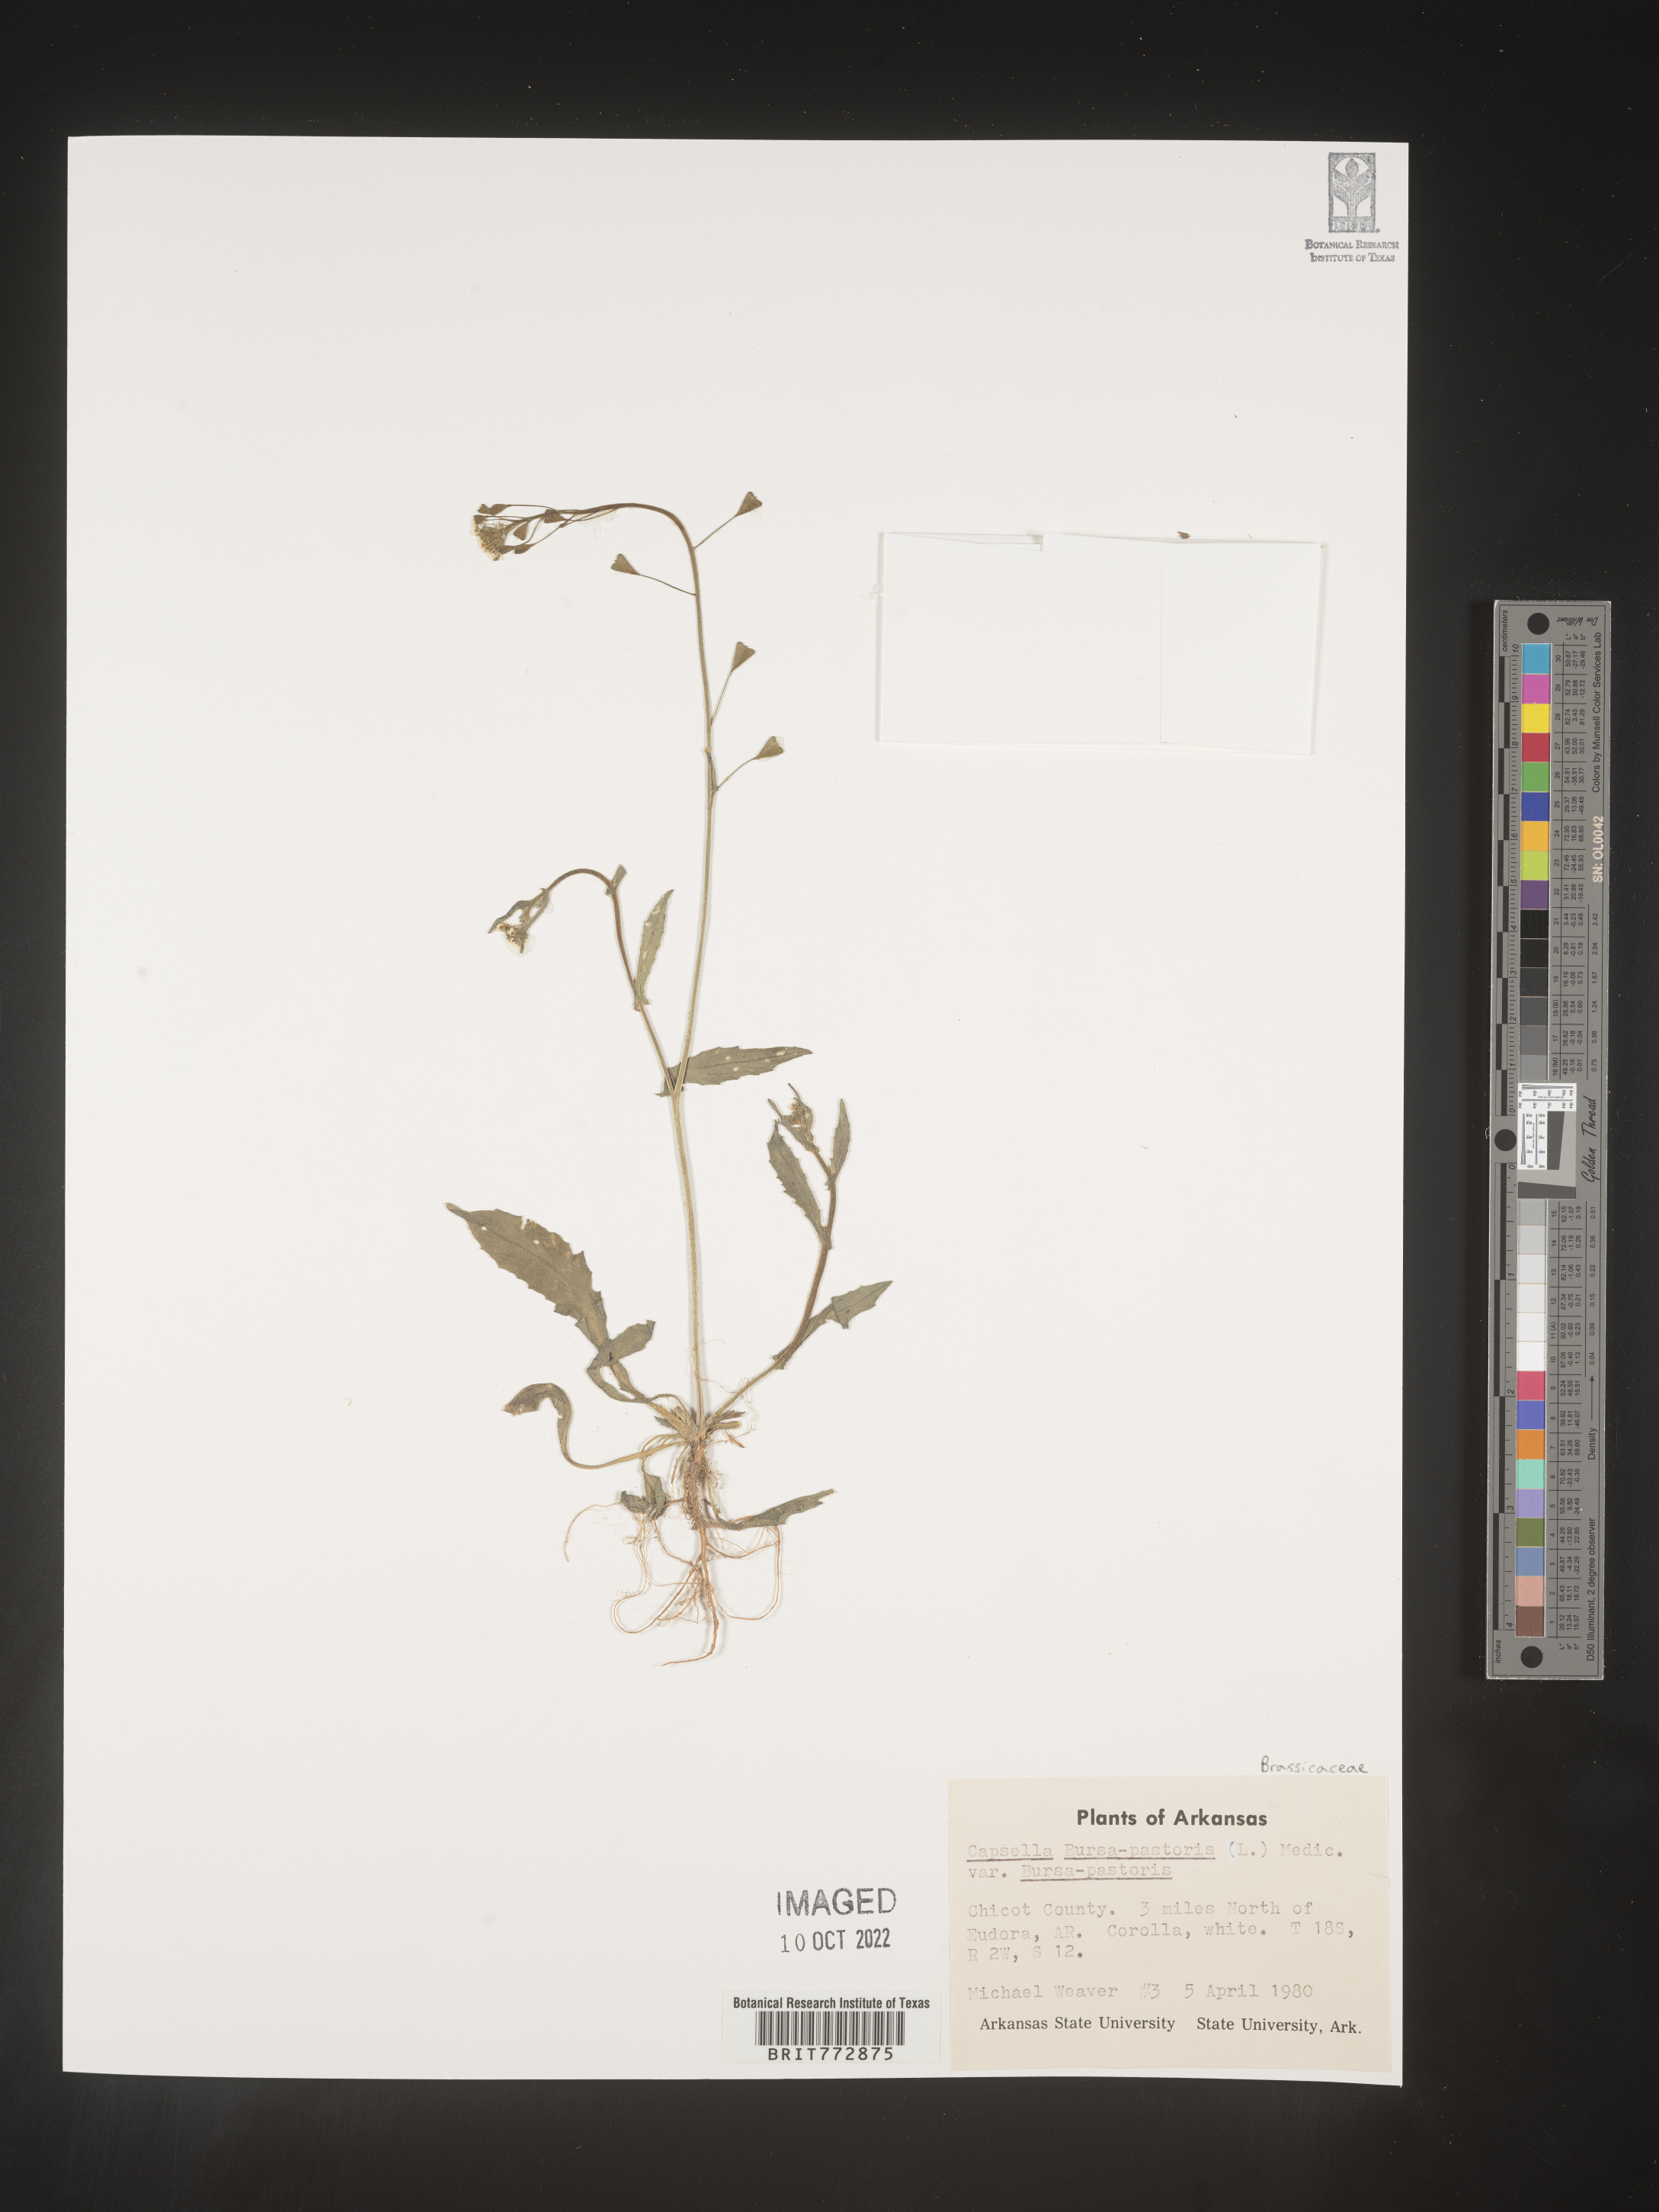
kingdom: Plantae
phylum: Tracheophyta
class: Magnoliopsida
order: Brassicales
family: Brassicaceae
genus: Capsella
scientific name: Capsella bursa-pastoris
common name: Shepherd's purse
